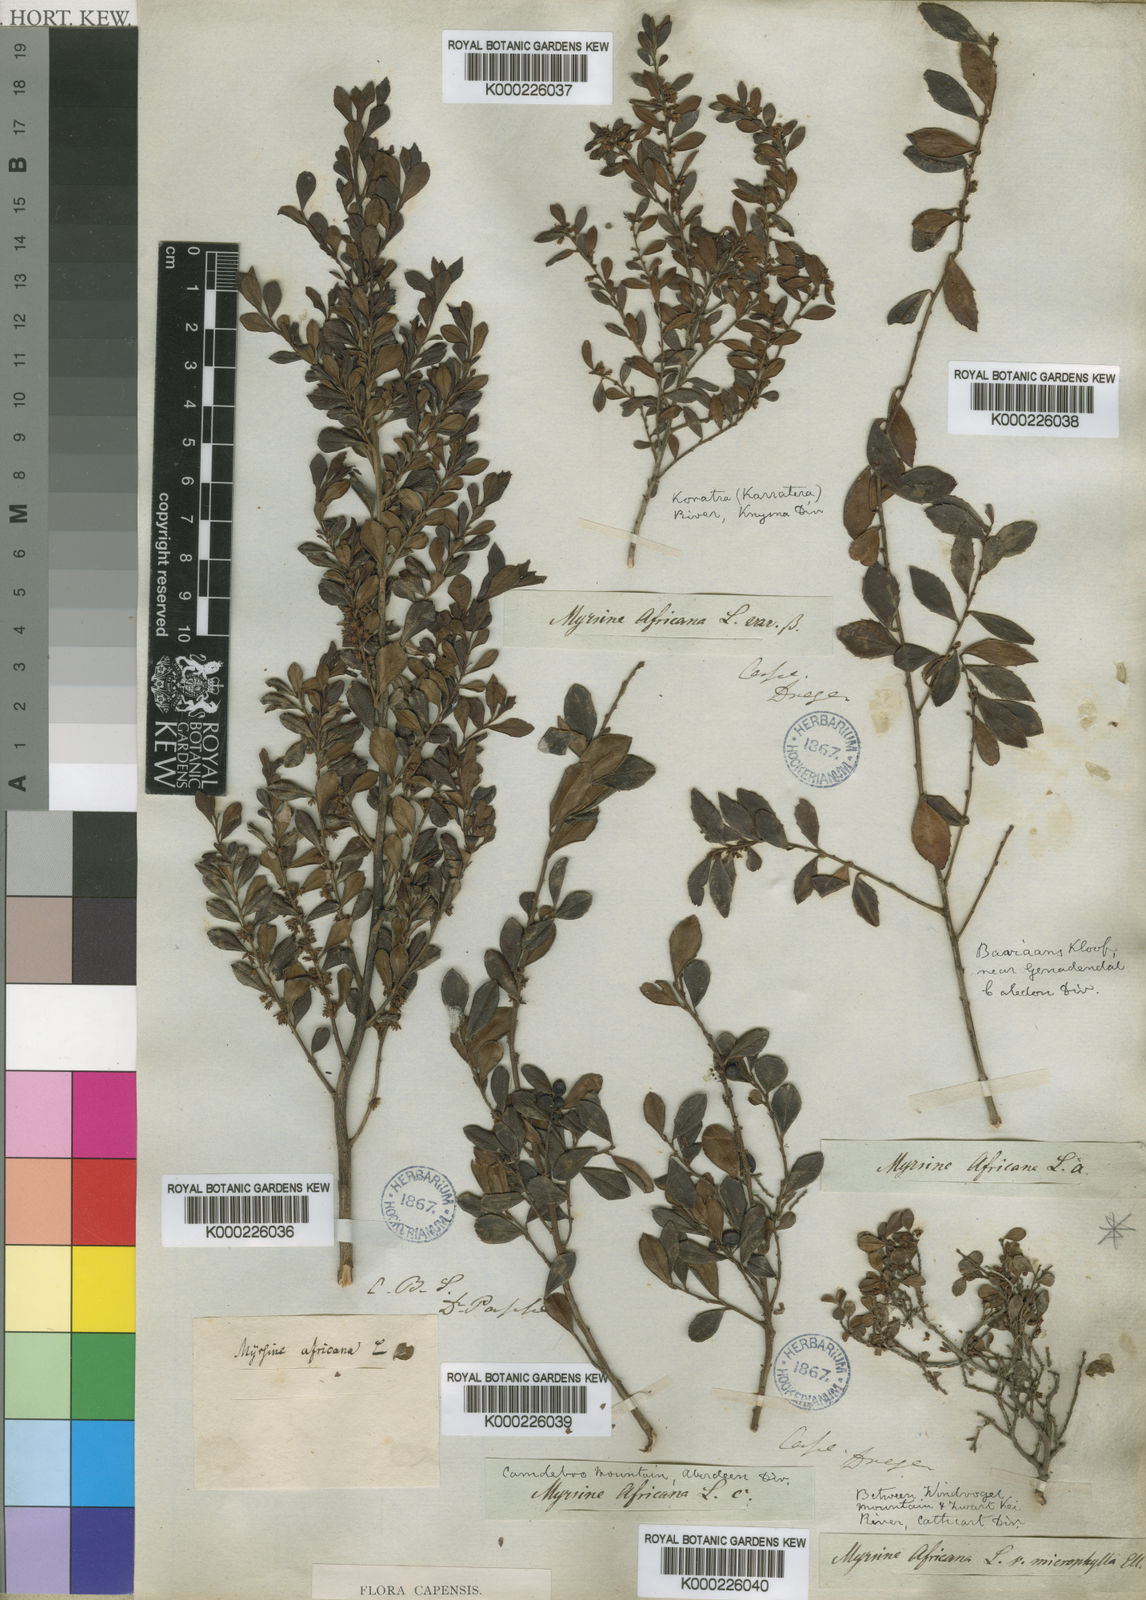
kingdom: Plantae
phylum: Tracheophyta
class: Magnoliopsida
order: Ericales
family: Primulaceae
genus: Myrsine
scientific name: Myrsine africana
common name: African-boxwood
